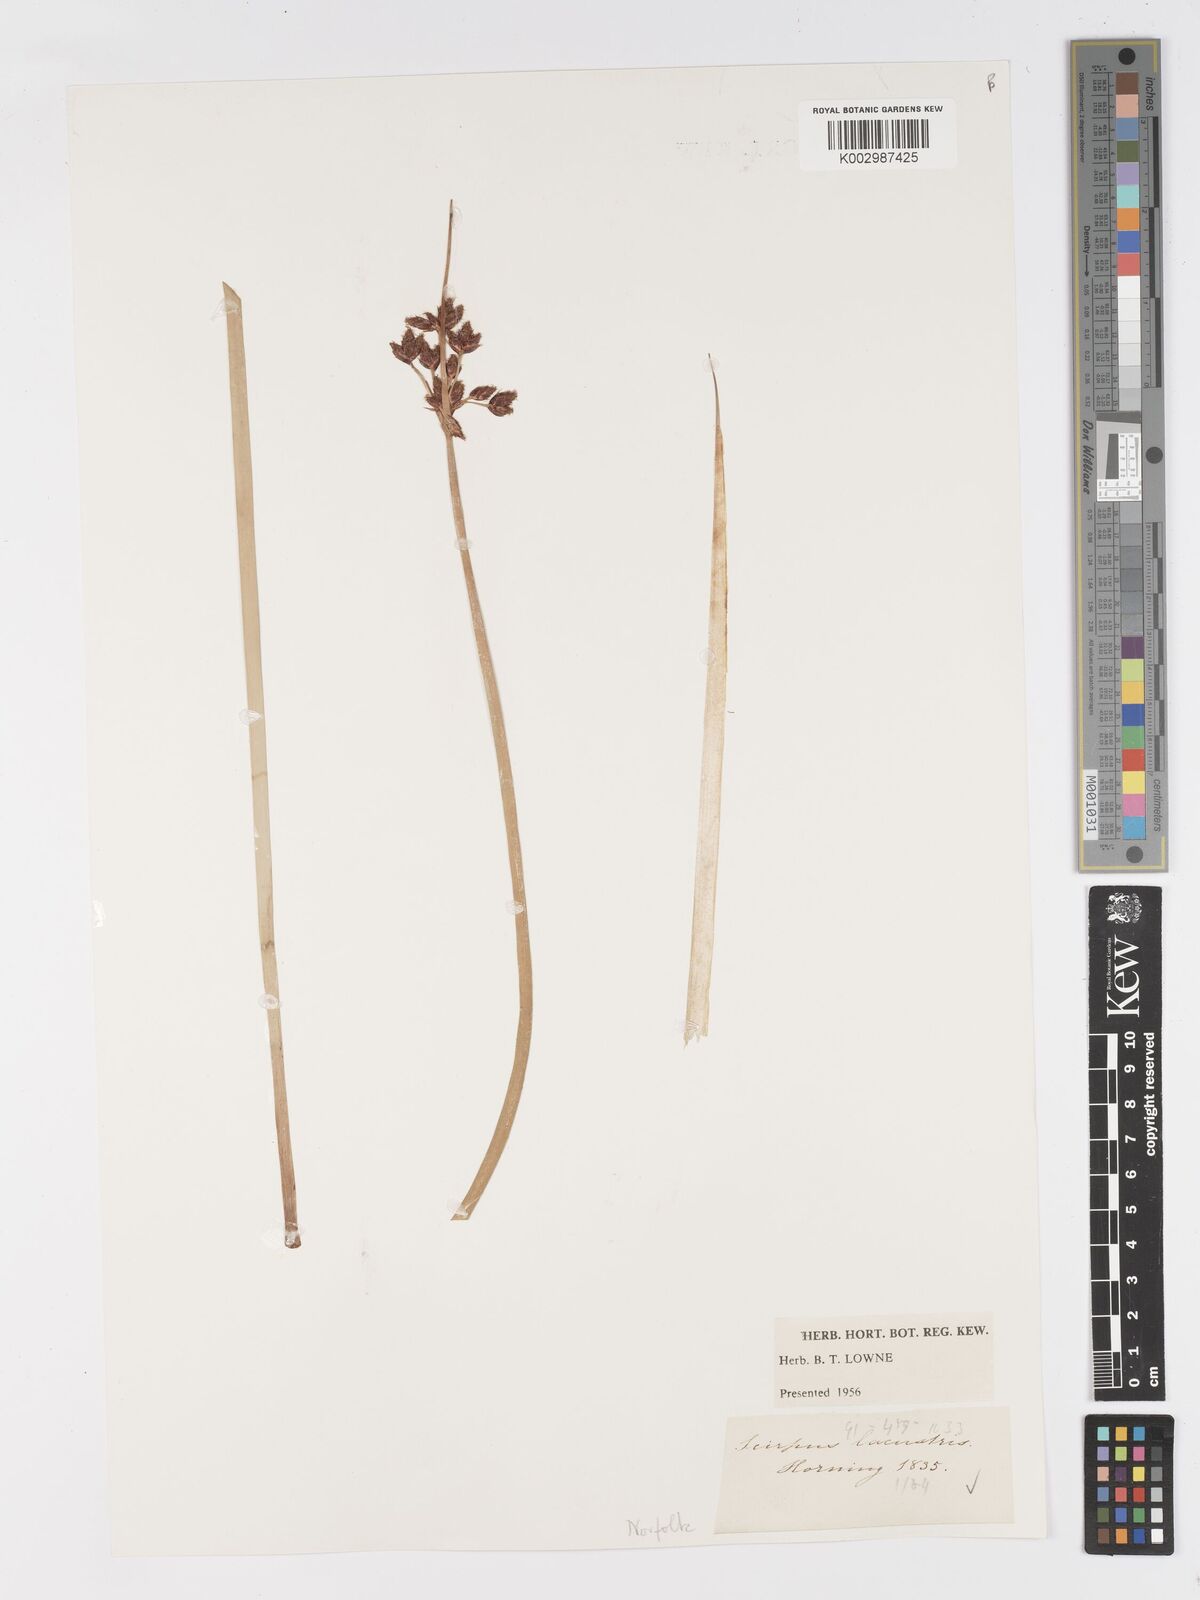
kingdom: Plantae
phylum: Tracheophyta
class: Liliopsida
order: Poales
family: Cyperaceae
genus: Schoenoplectus
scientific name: Schoenoplectus lacustris
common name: Common club-rush
